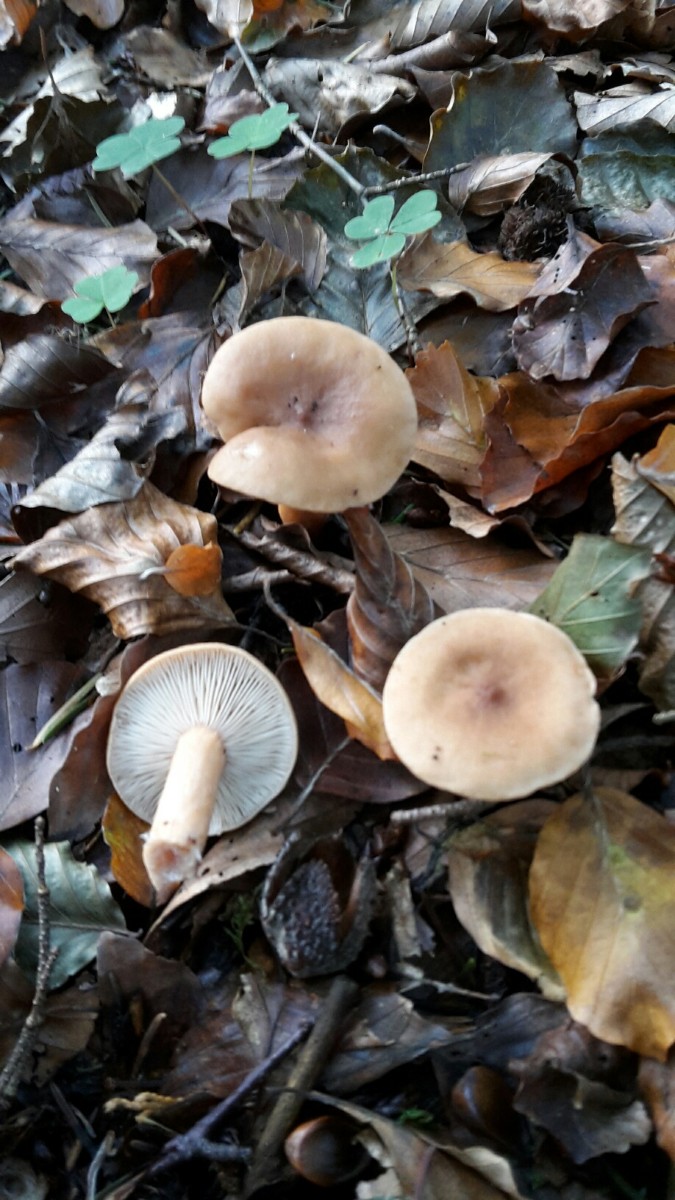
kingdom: Fungi
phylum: Basidiomycota
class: Agaricomycetes
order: Russulales
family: Russulaceae
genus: Lactarius
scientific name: Lactarius subdulcis
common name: sødlig mælkehat
